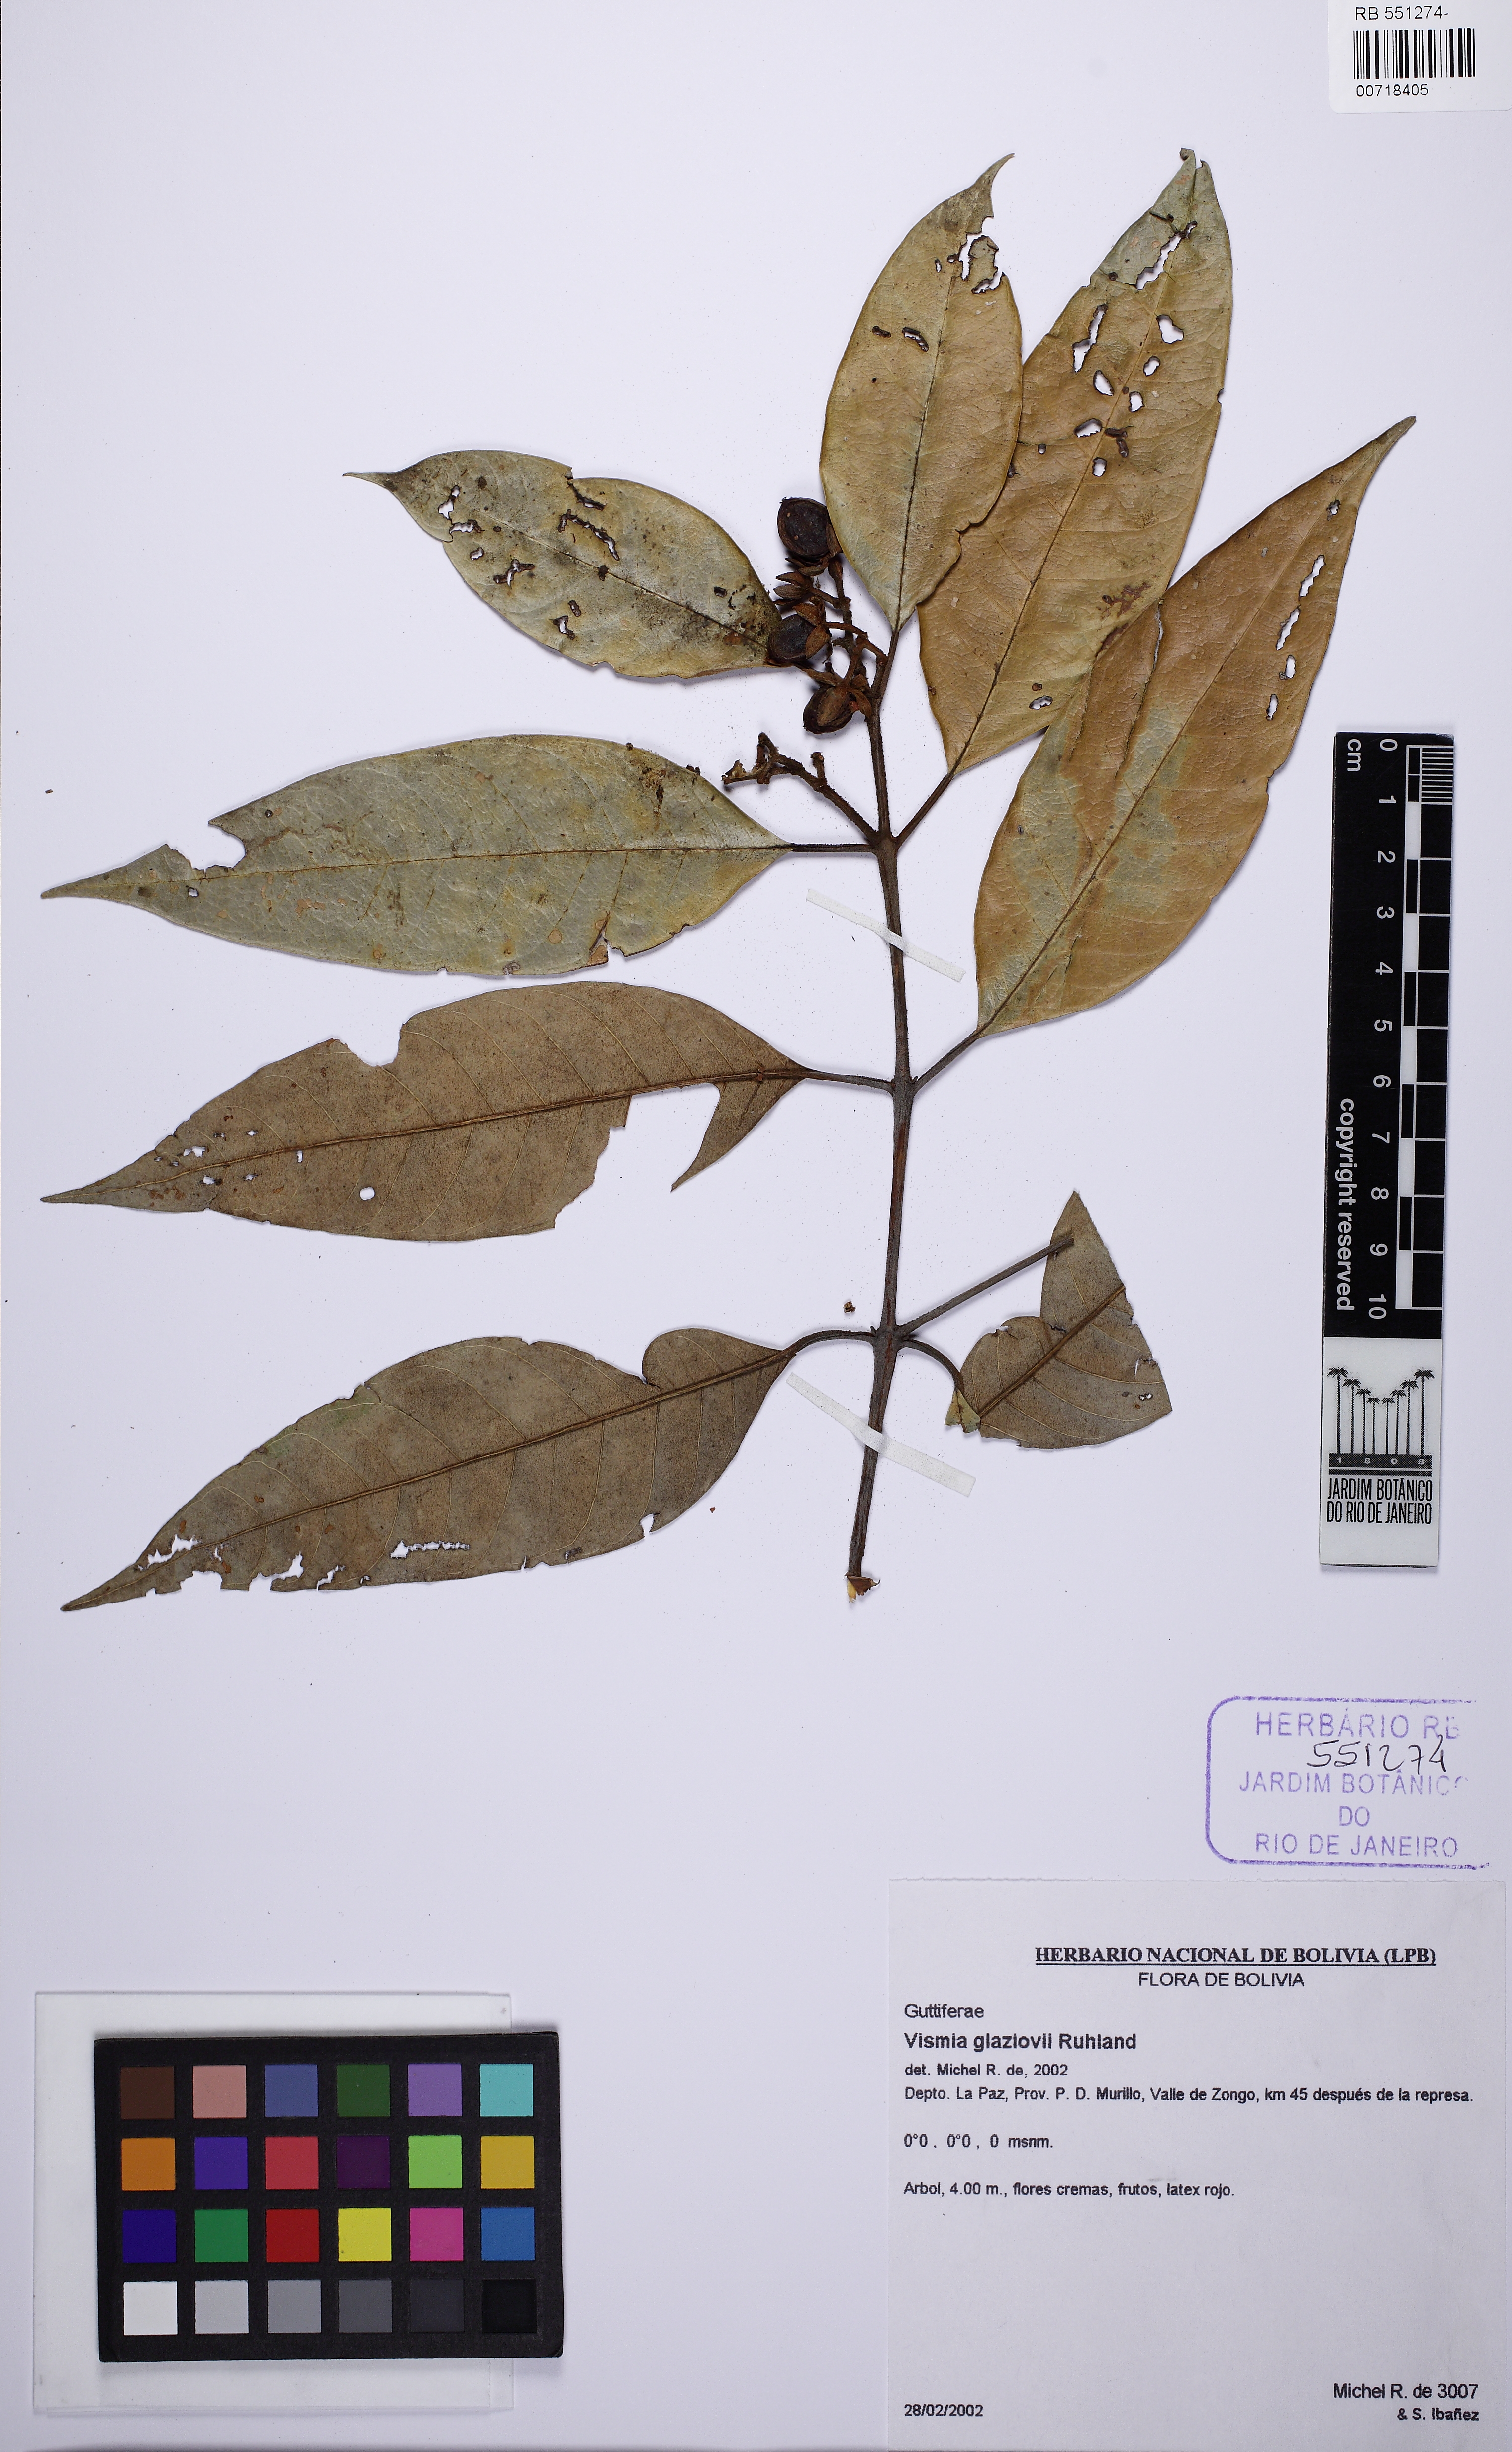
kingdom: Plantae
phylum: Tracheophyta
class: Magnoliopsida
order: Malpighiales
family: Hypericaceae
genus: Vismia
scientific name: Vismia gracilis
